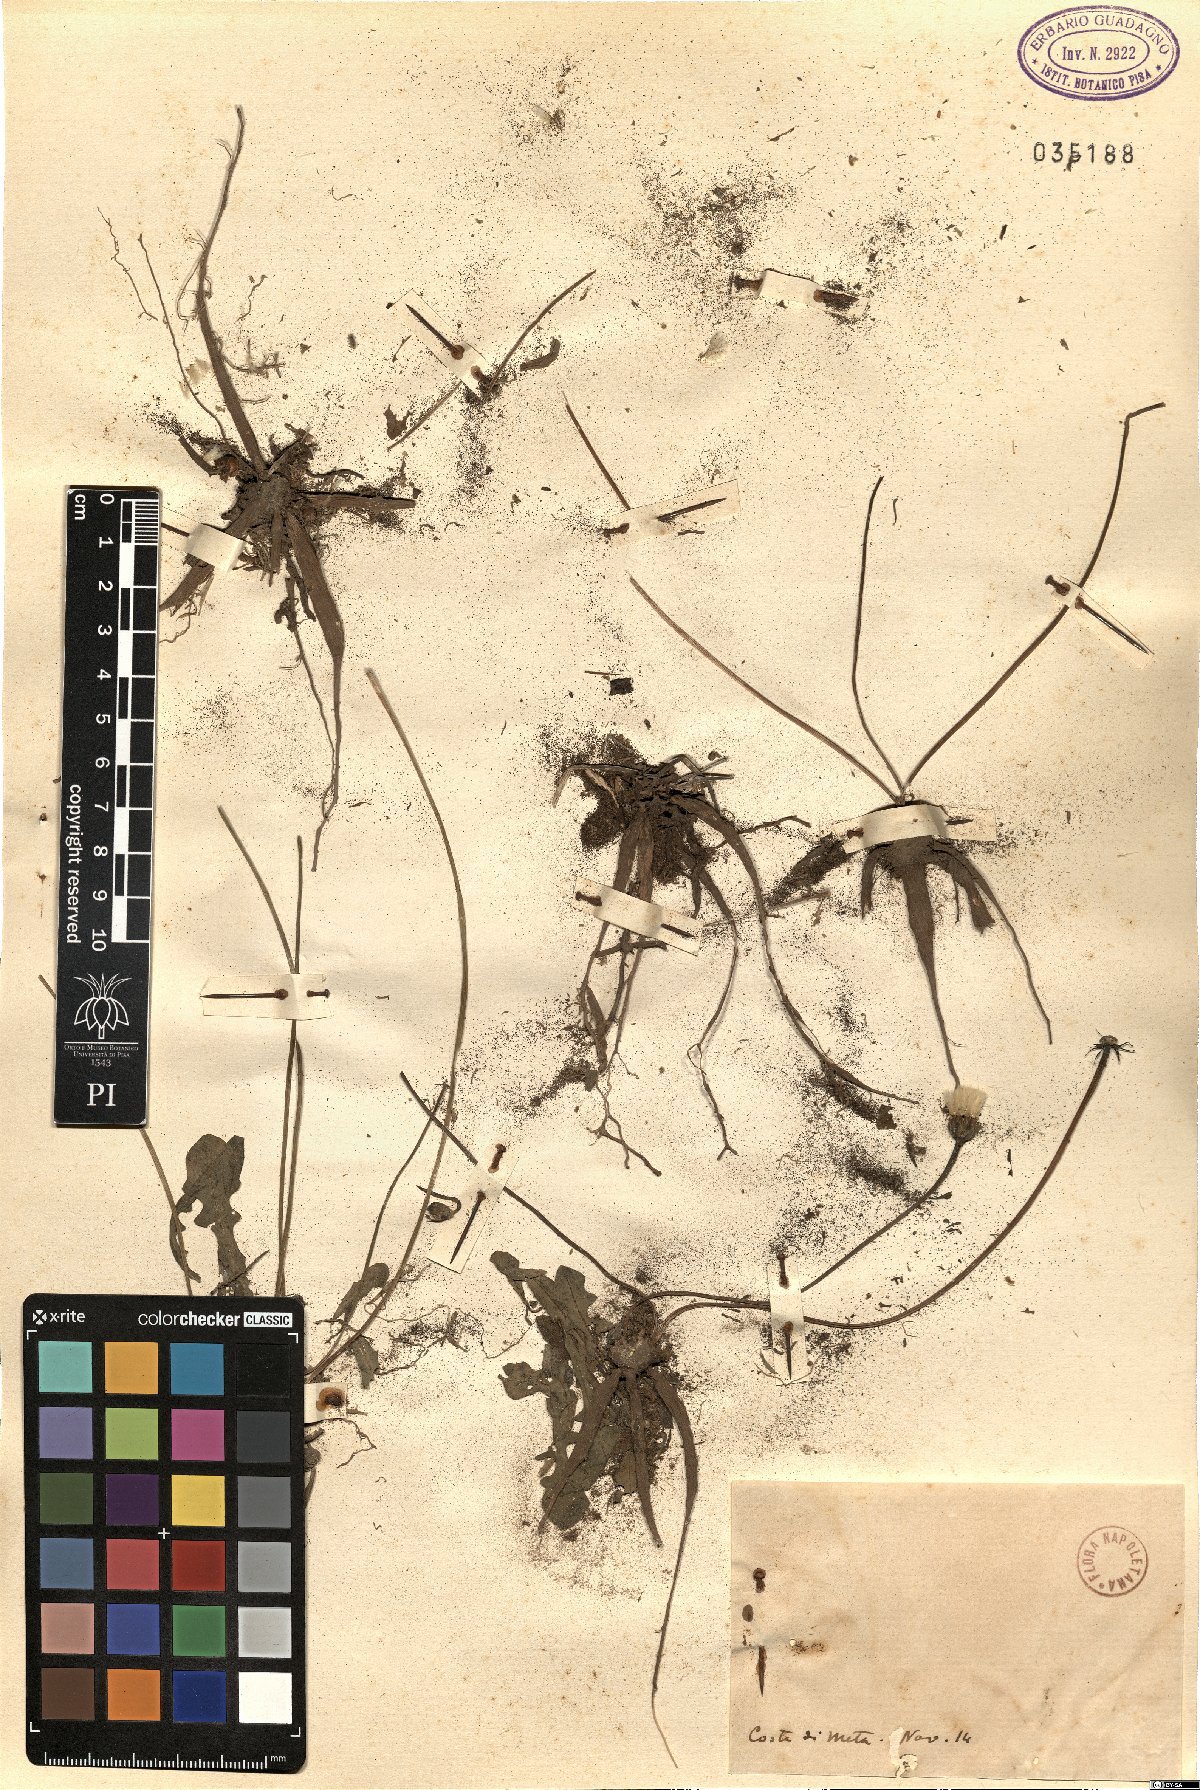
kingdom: Plantae
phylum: Tracheophyta
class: Magnoliopsida
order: Asterales
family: Asteraceae
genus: Thrincia
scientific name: Thrincia
